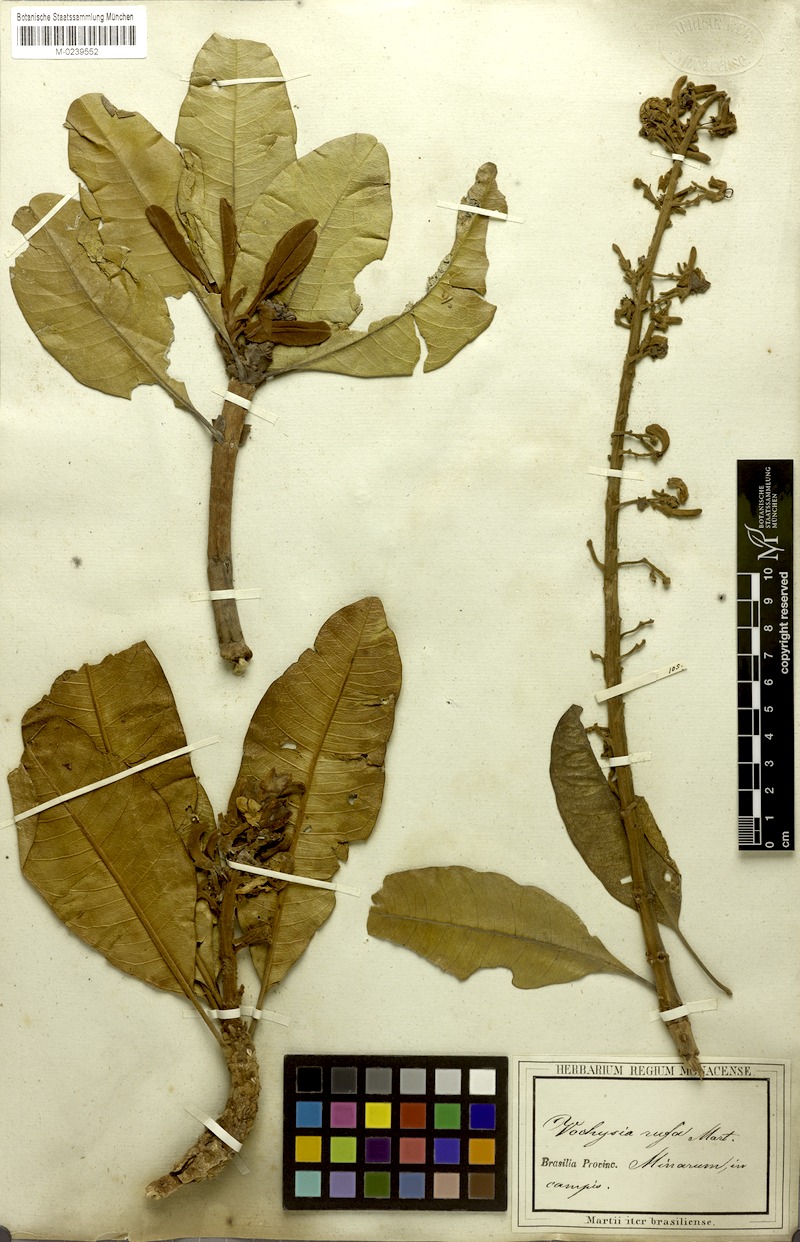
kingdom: Plantae
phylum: Tracheophyta
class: Magnoliopsida
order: Myrtales
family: Vochysiaceae
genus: Vochysia
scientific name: Vochysia rufa
